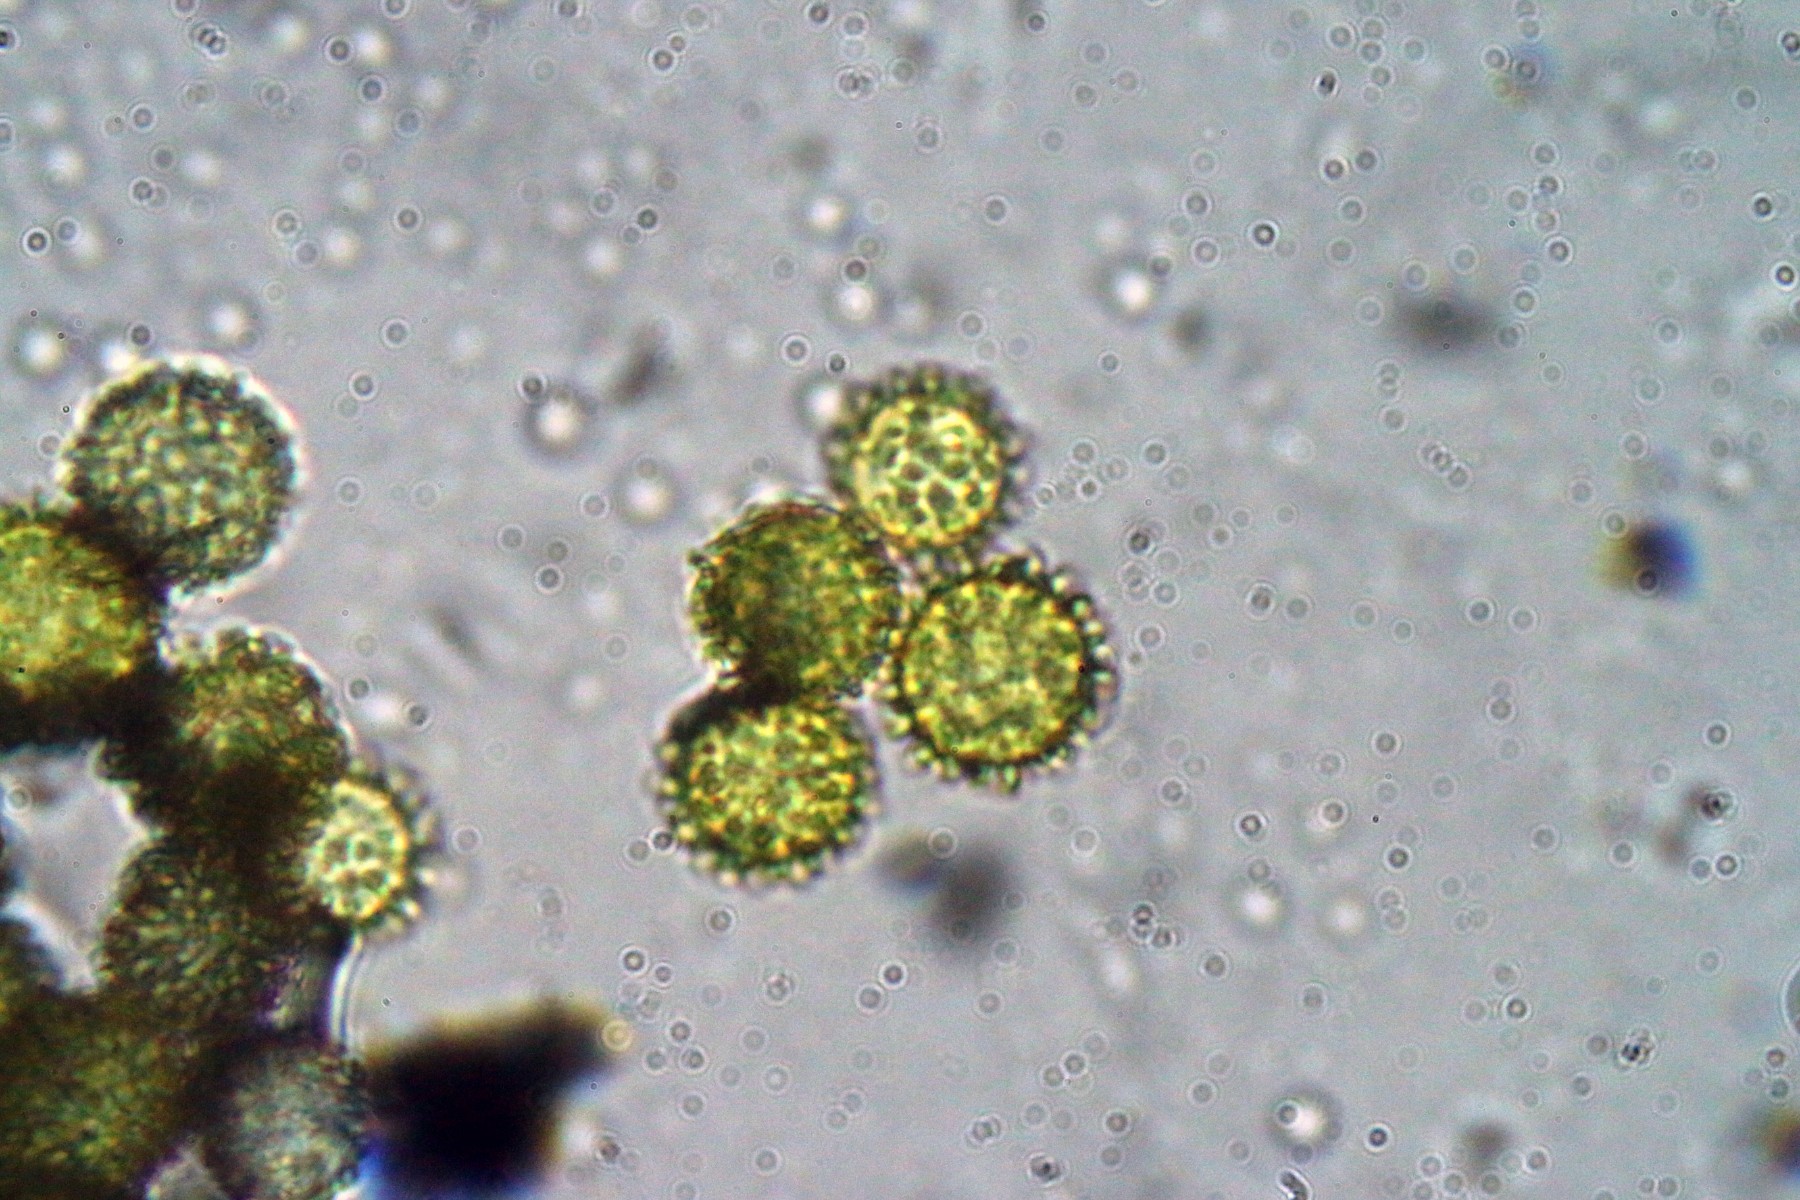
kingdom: Fungi
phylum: Ascomycota
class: Sordariomycetes
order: Hypocreales
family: Hypocreaceae
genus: Hypomyces
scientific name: Hypomyces microspermus
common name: dværgrørhat-snylteskorpe
